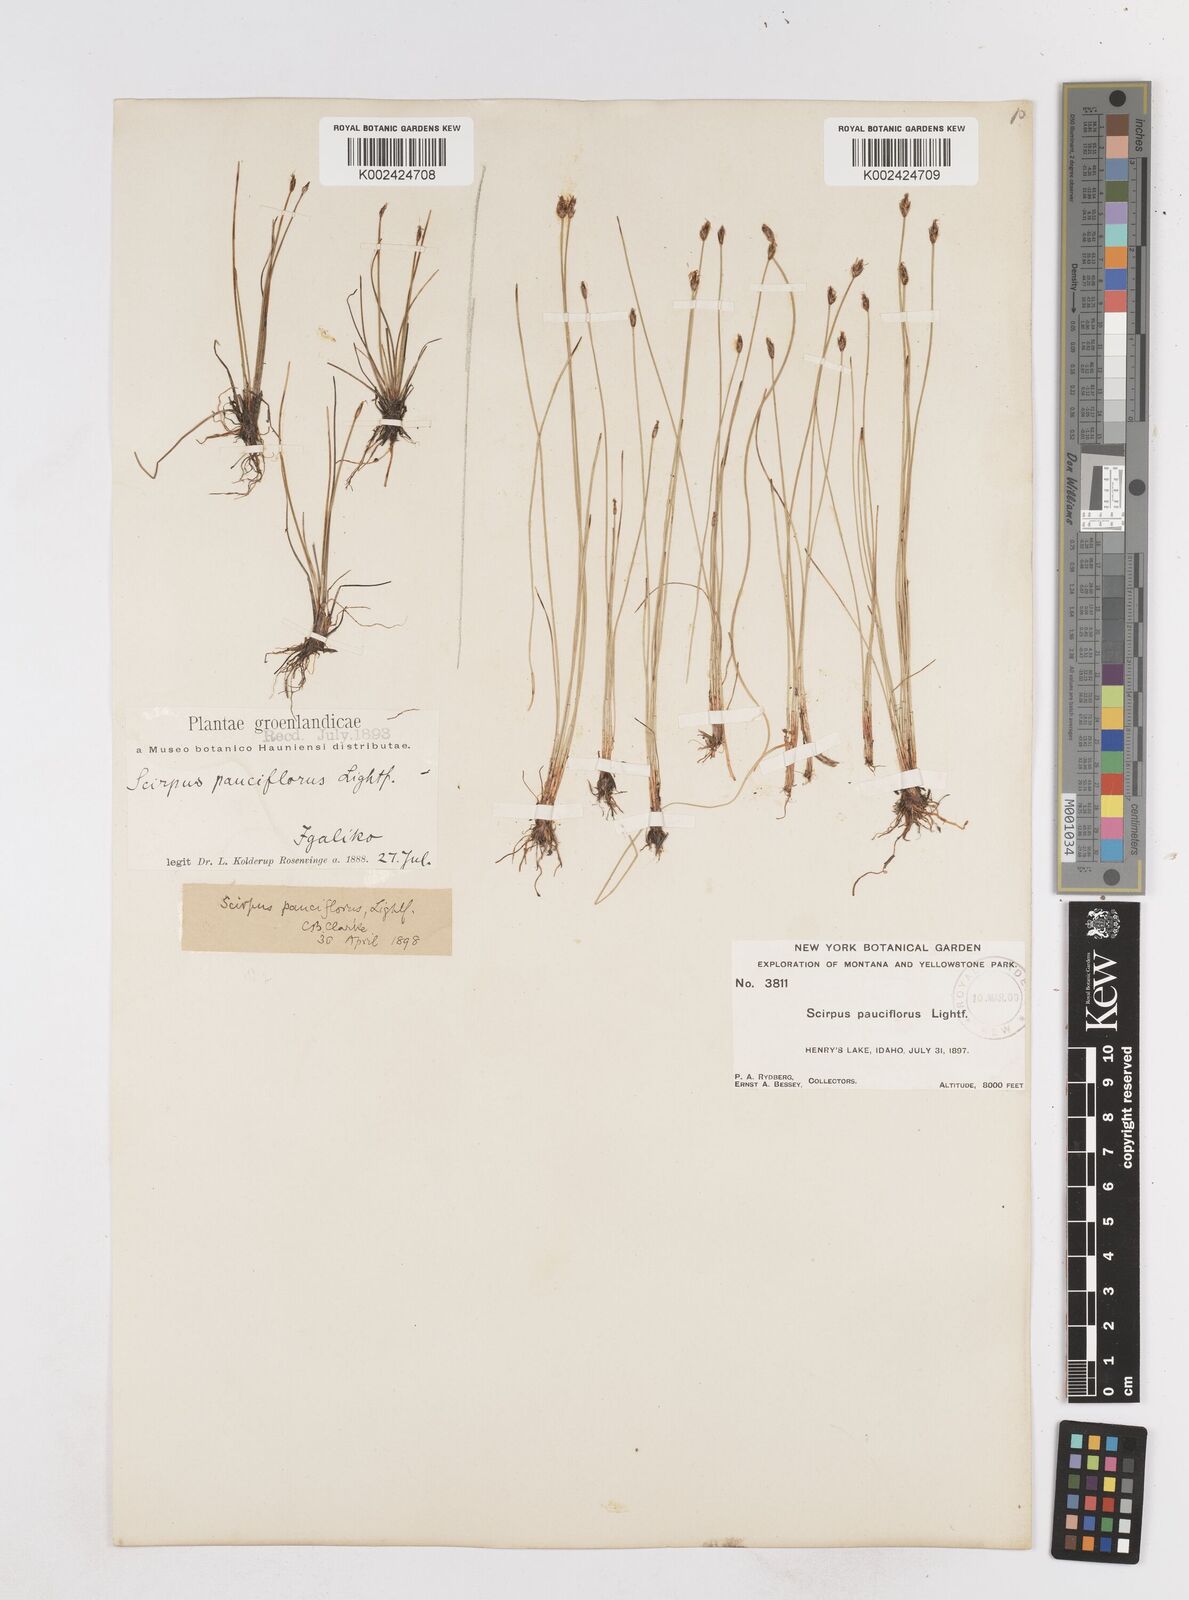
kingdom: Plantae
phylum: Tracheophyta
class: Liliopsida
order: Poales
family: Cyperaceae
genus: Eleocharis
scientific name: Eleocharis quinqueflora
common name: Few-flowered spike-rush
